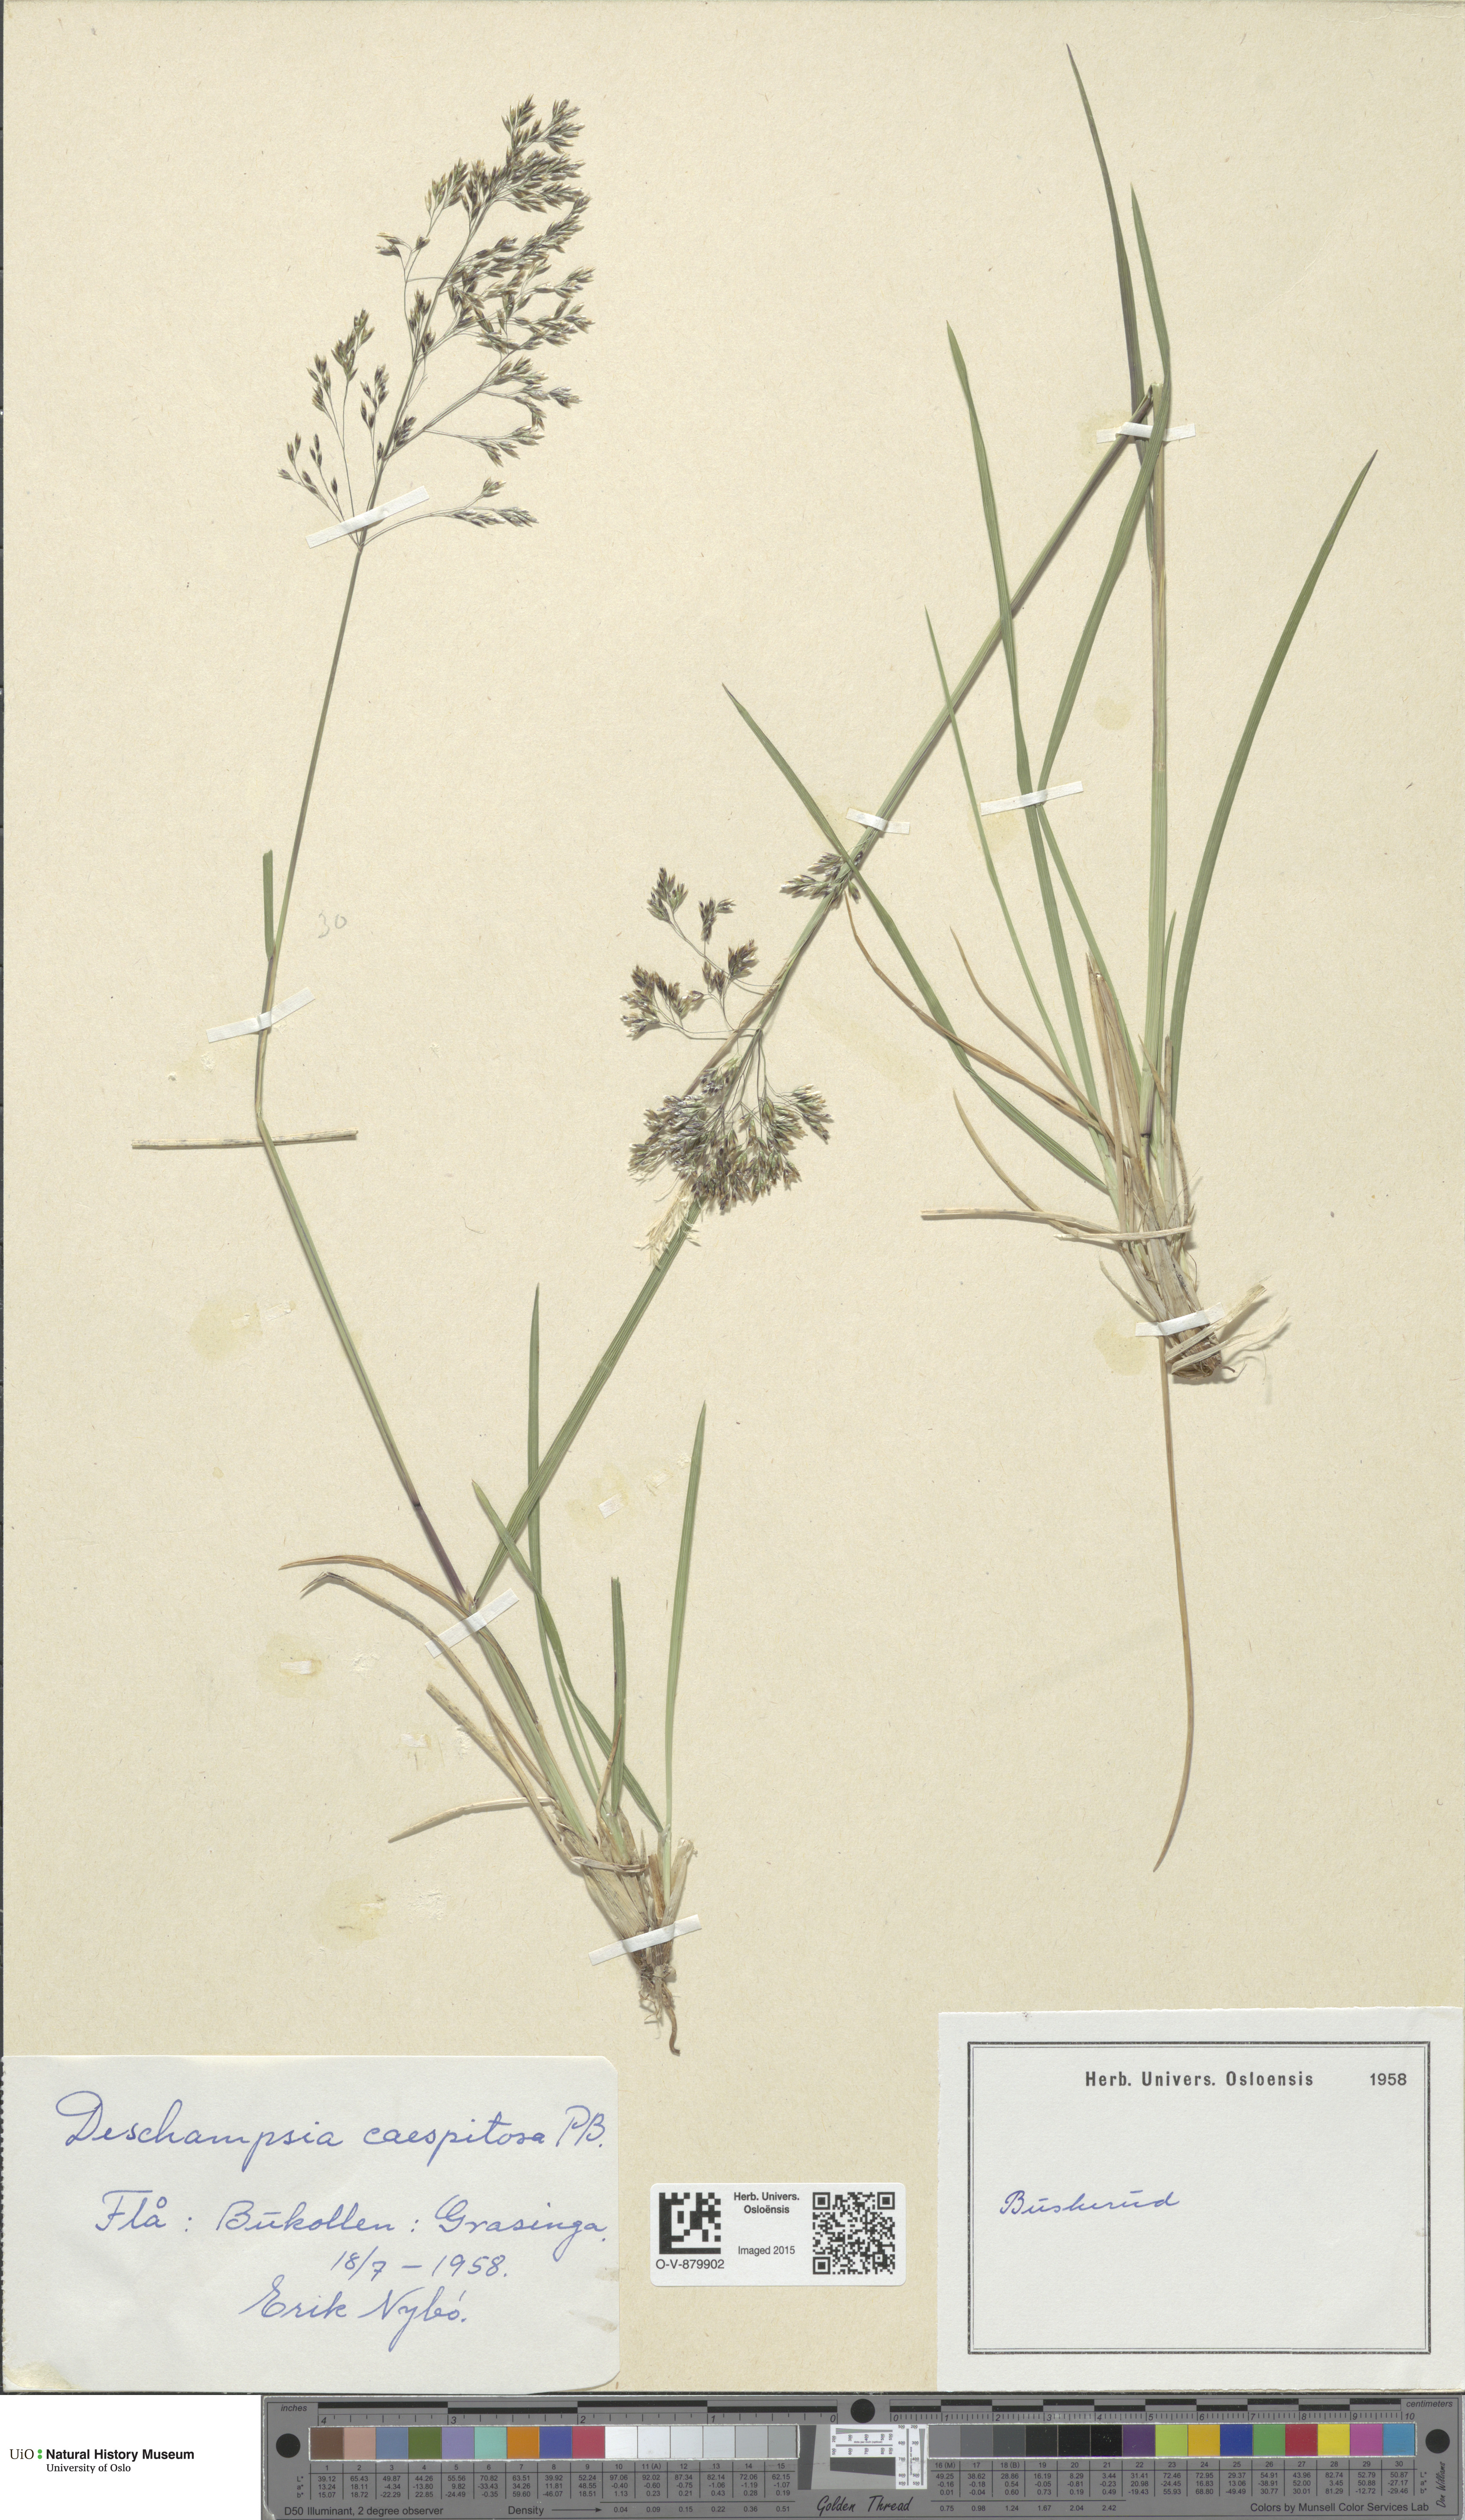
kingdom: Plantae
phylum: Tracheophyta
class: Liliopsida
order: Poales
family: Poaceae
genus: Deschampsia
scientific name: Deschampsia cespitosa
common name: Tufted hair-grass
